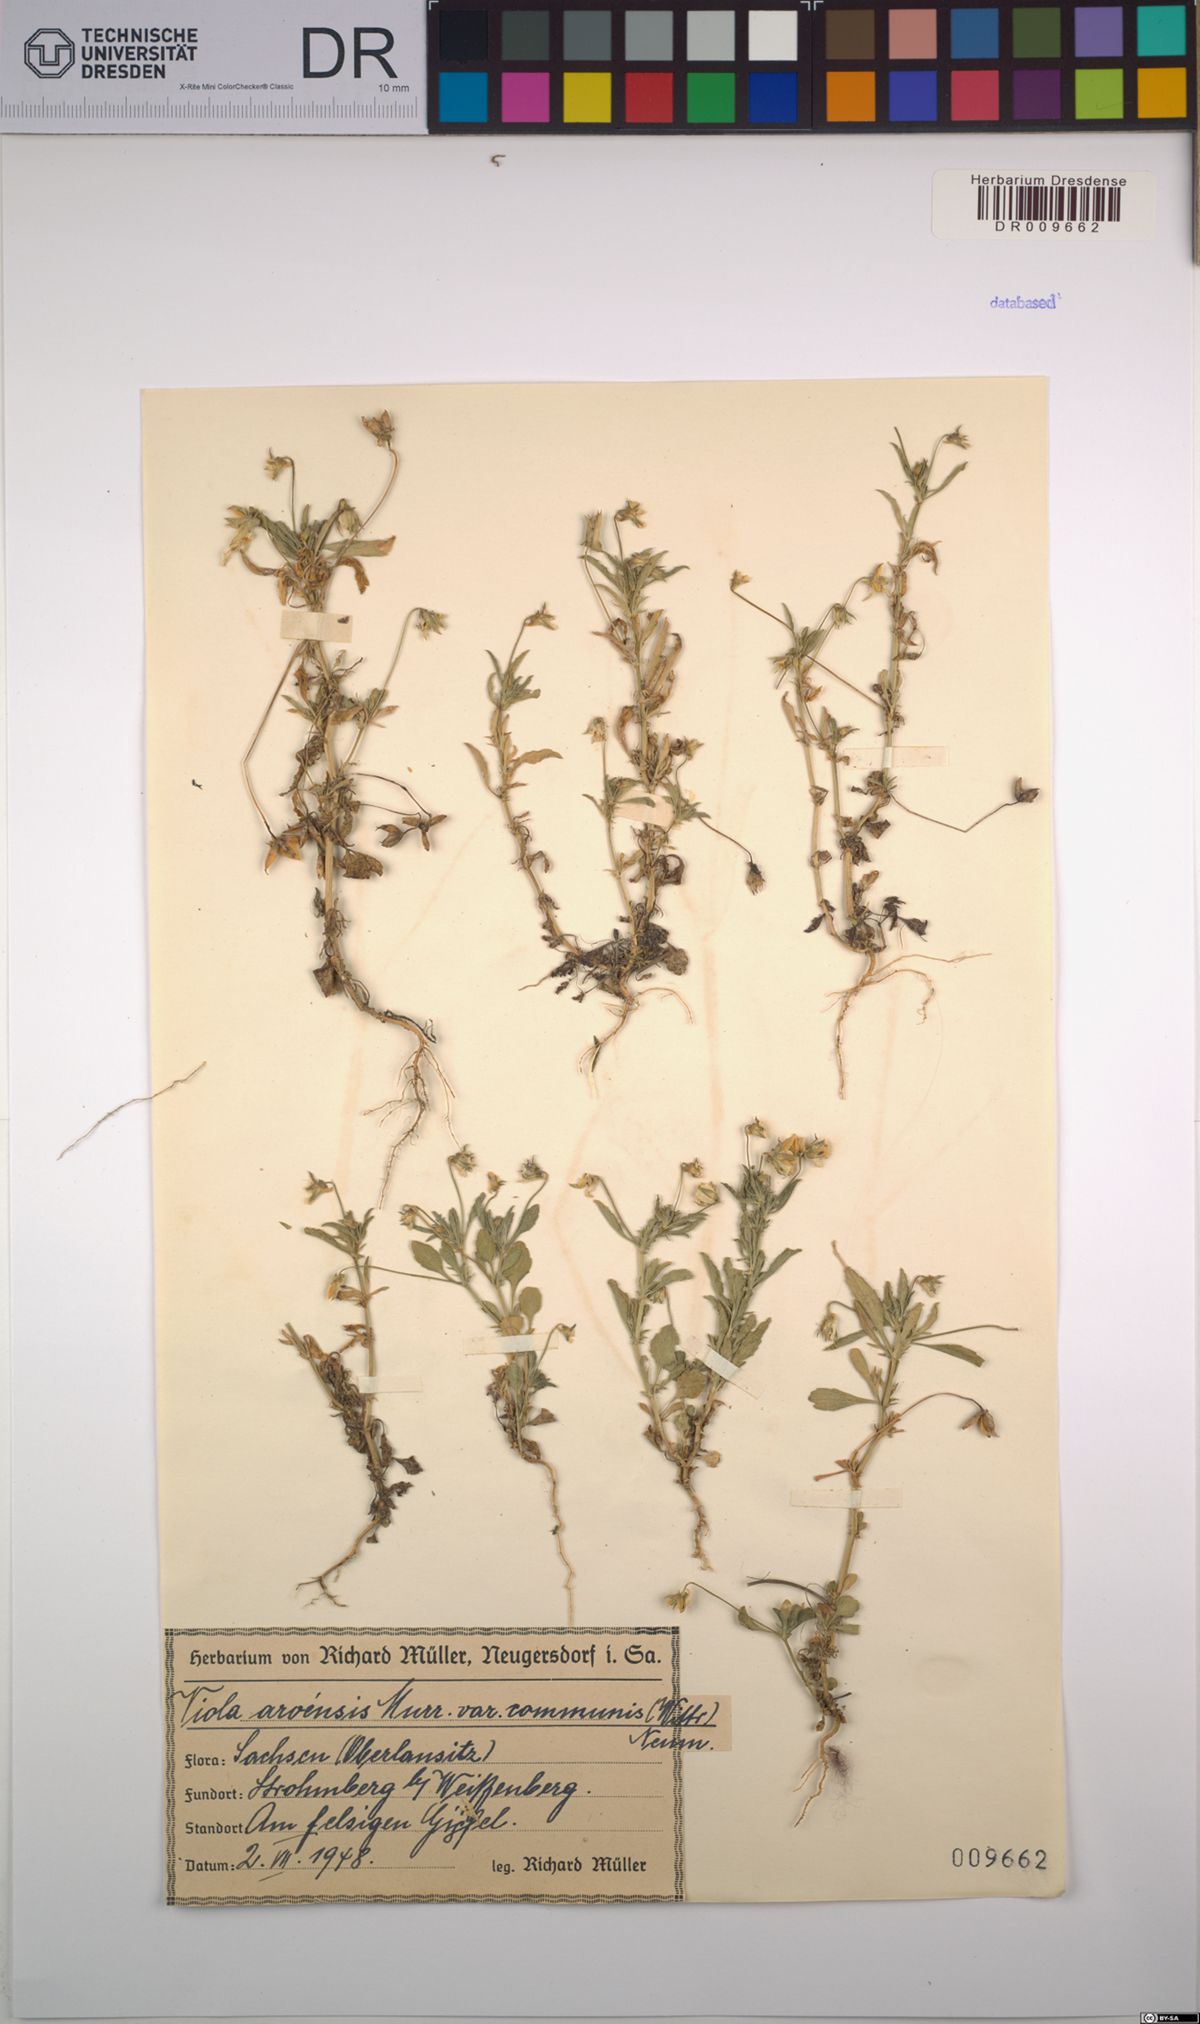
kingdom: Plantae
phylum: Tracheophyta
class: Magnoliopsida
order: Malpighiales
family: Violaceae
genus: Viola
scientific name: Viola arvensis
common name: Field pansy
